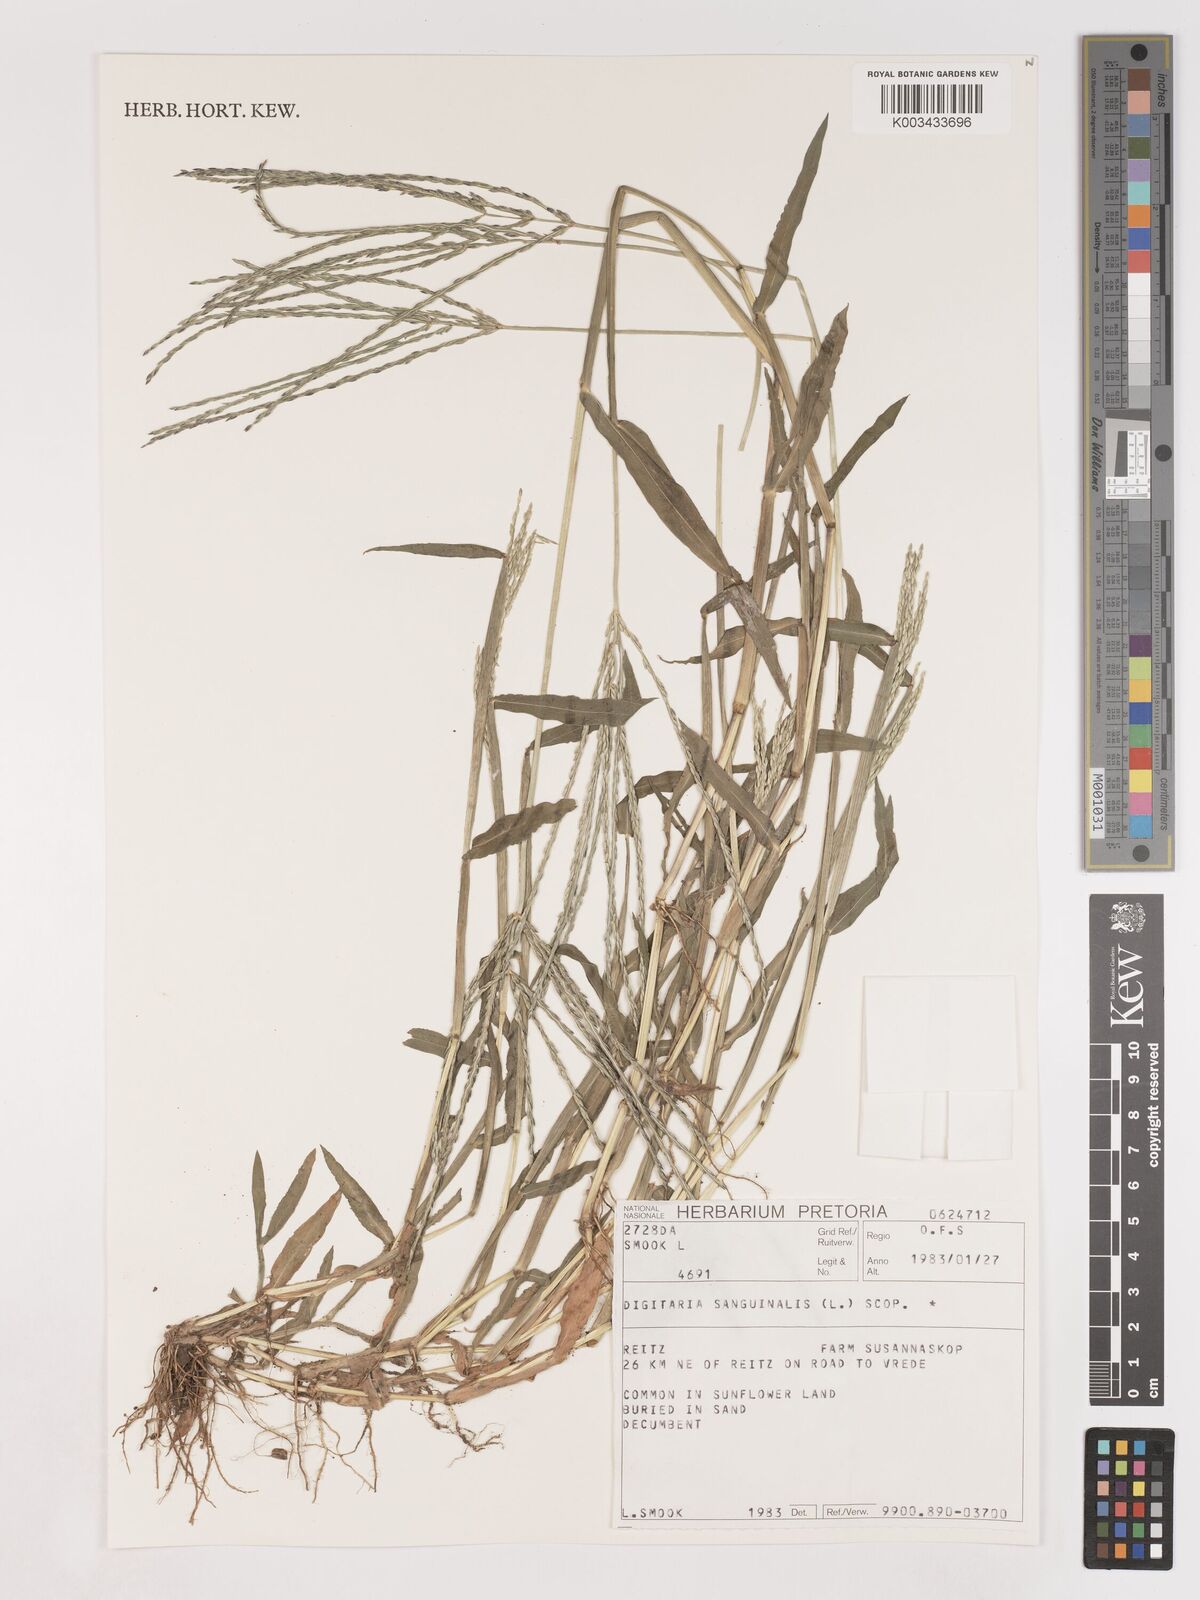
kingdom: Plantae
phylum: Tracheophyta
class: Liliopsida
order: Poales
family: Poaceae
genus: Digitaria
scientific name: Digitaria sanguinalis
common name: Hairy crabgrass
